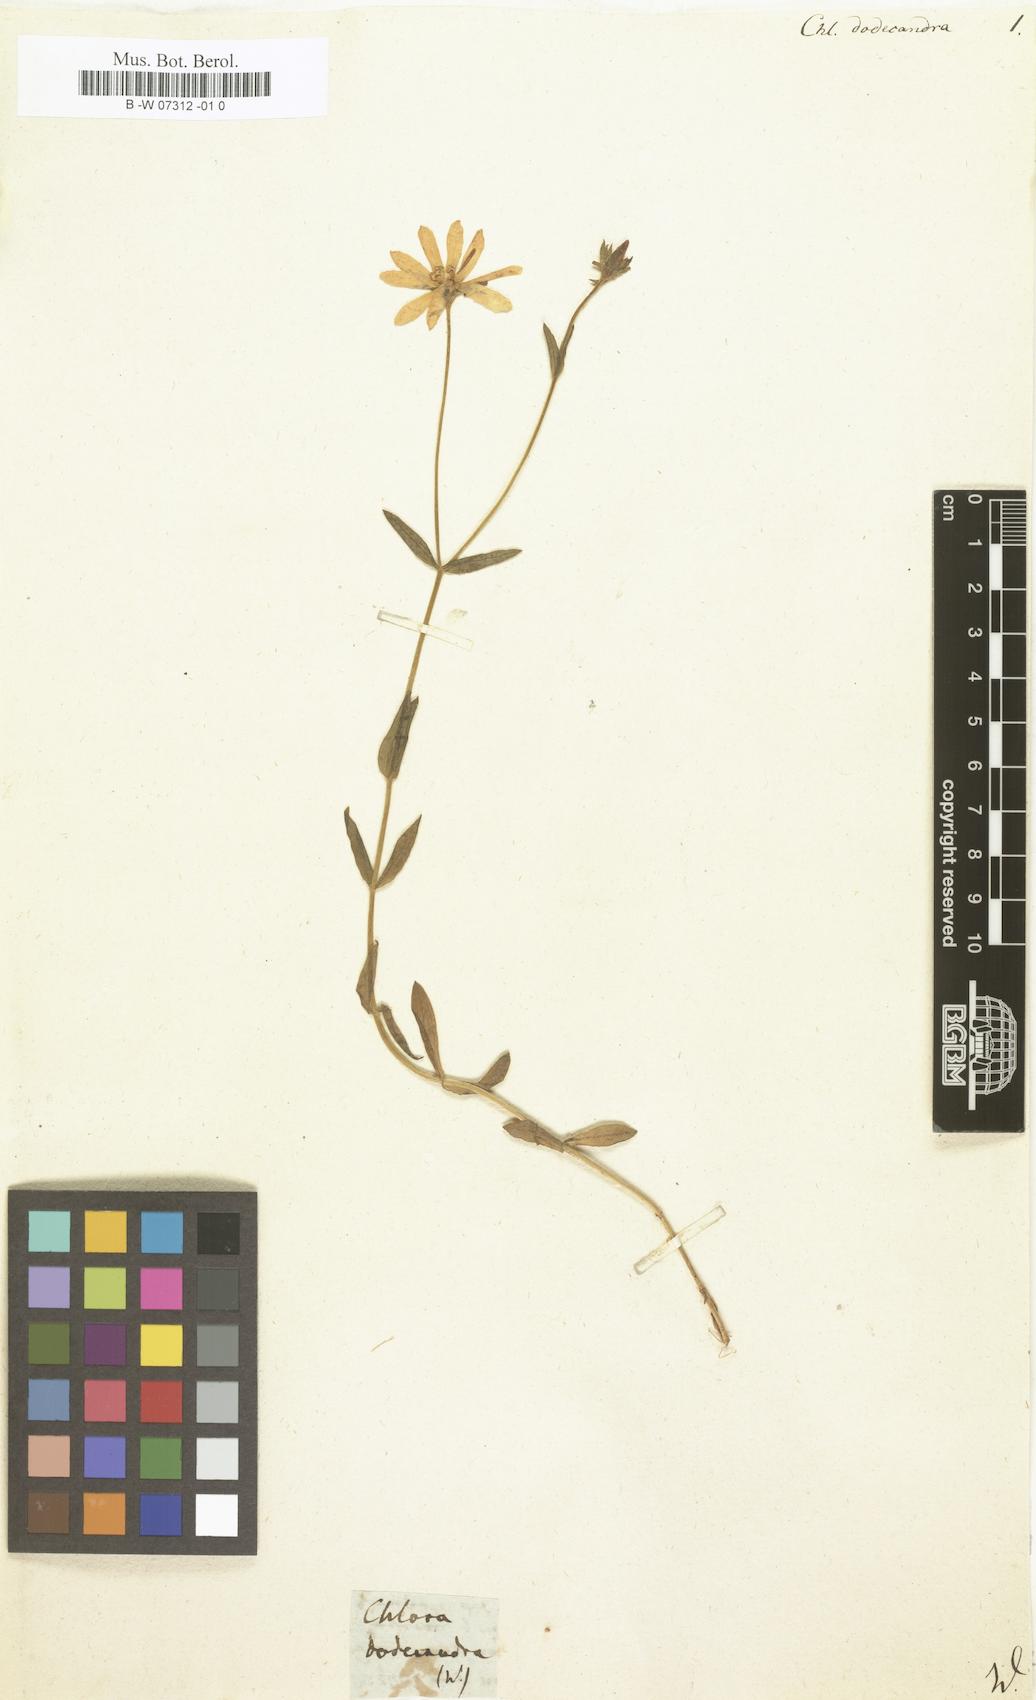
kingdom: Plantae
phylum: Tracheophyta
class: Magnoliopsida
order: Gentianales
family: Gentianaceae
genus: Sabatia
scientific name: Sabatia dodecandra
